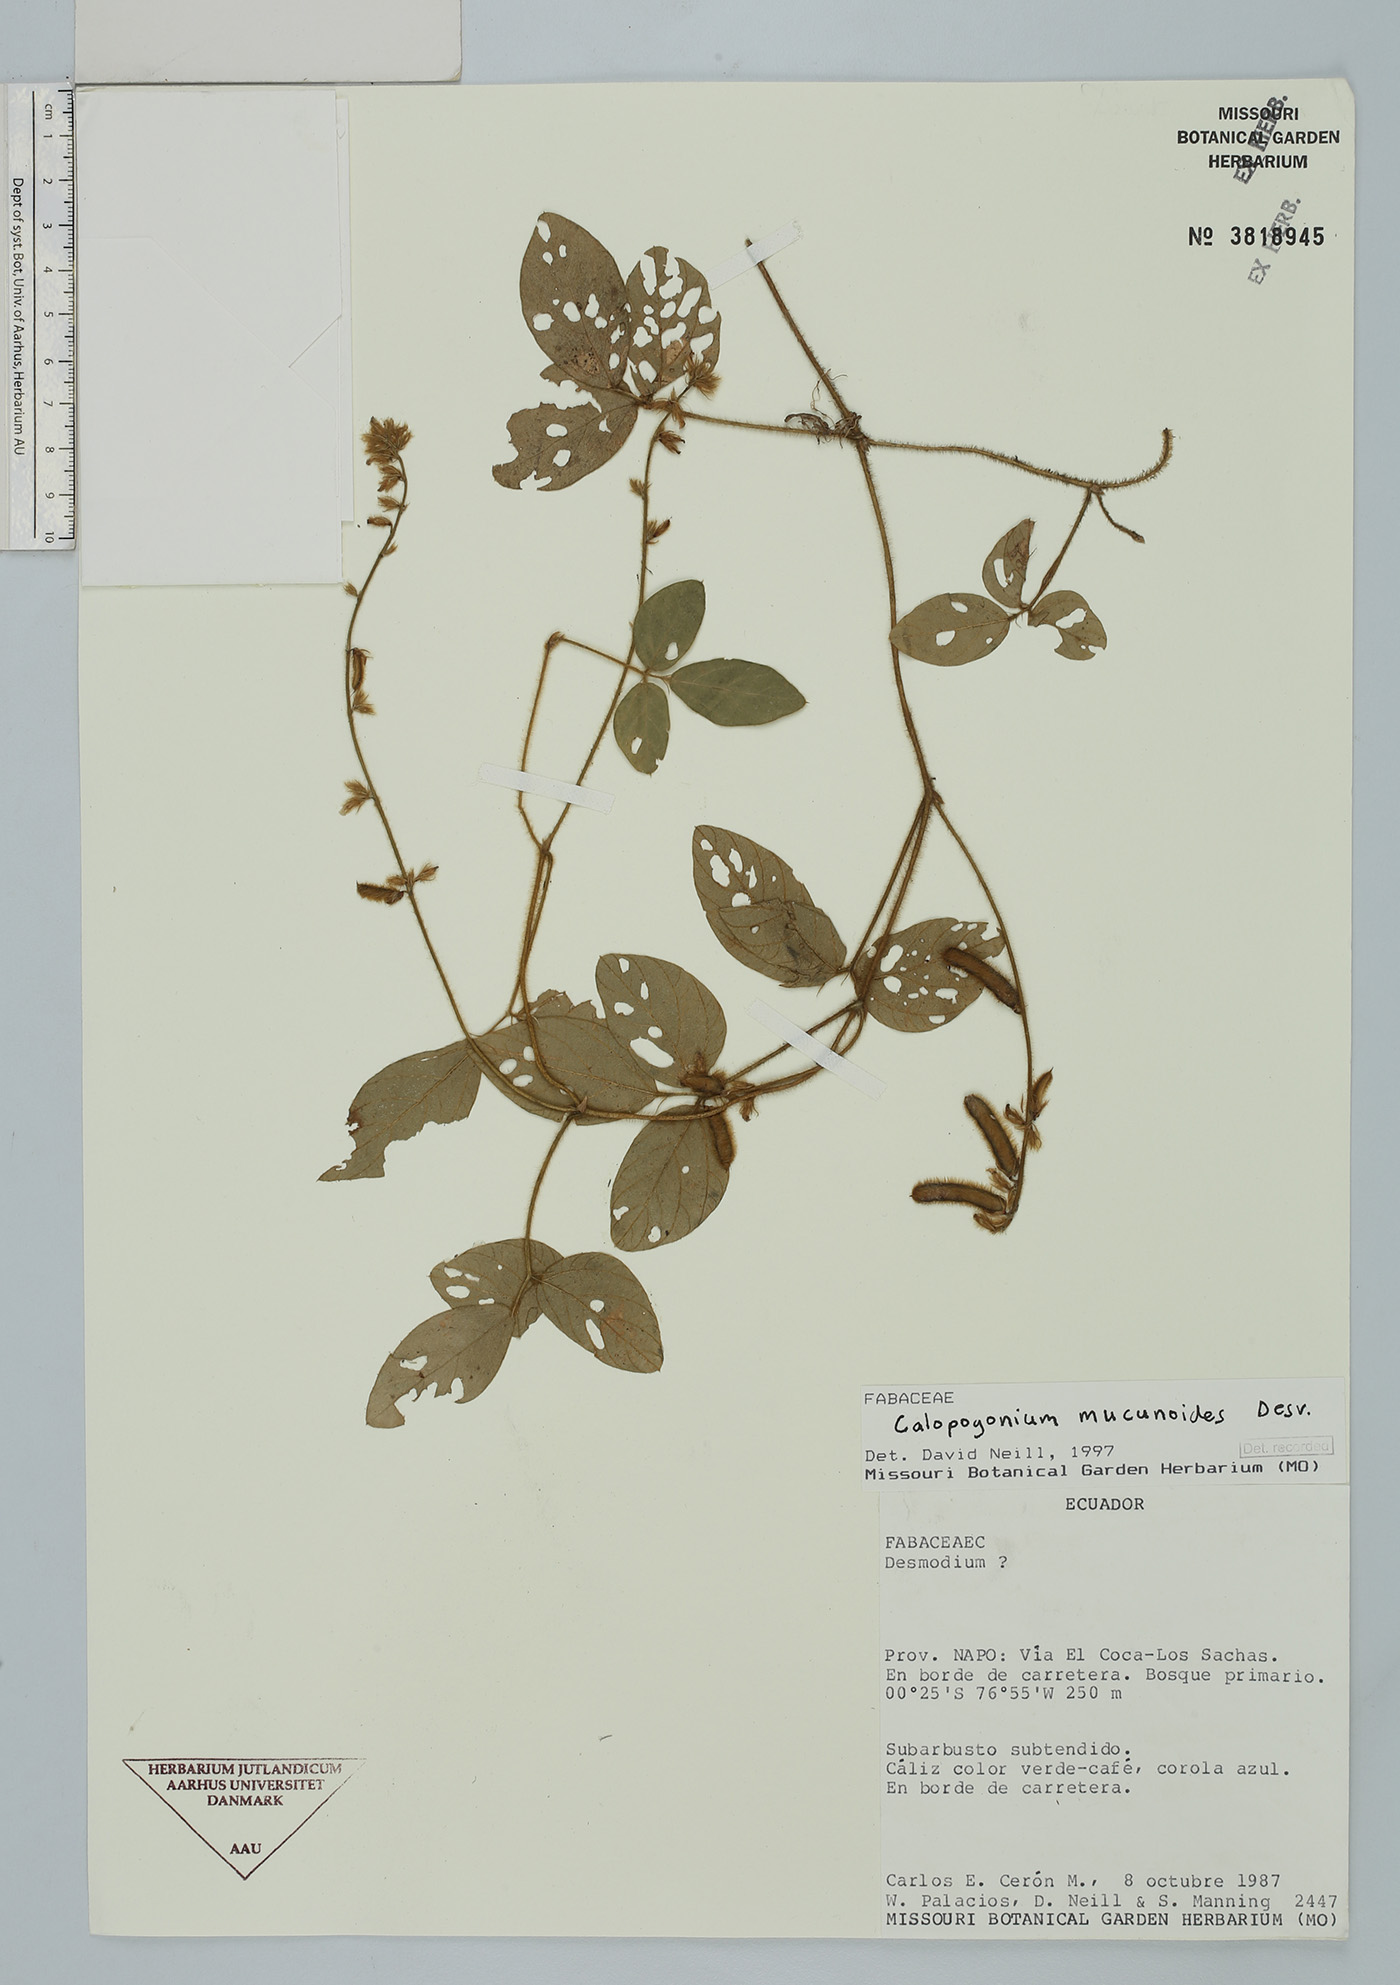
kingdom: Plantae
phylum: Tracheophyta
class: Magnoliopsida
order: Fabales
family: Fabaceae
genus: Calopogonium
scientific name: Calopogonium mucunoides
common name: Calopo
